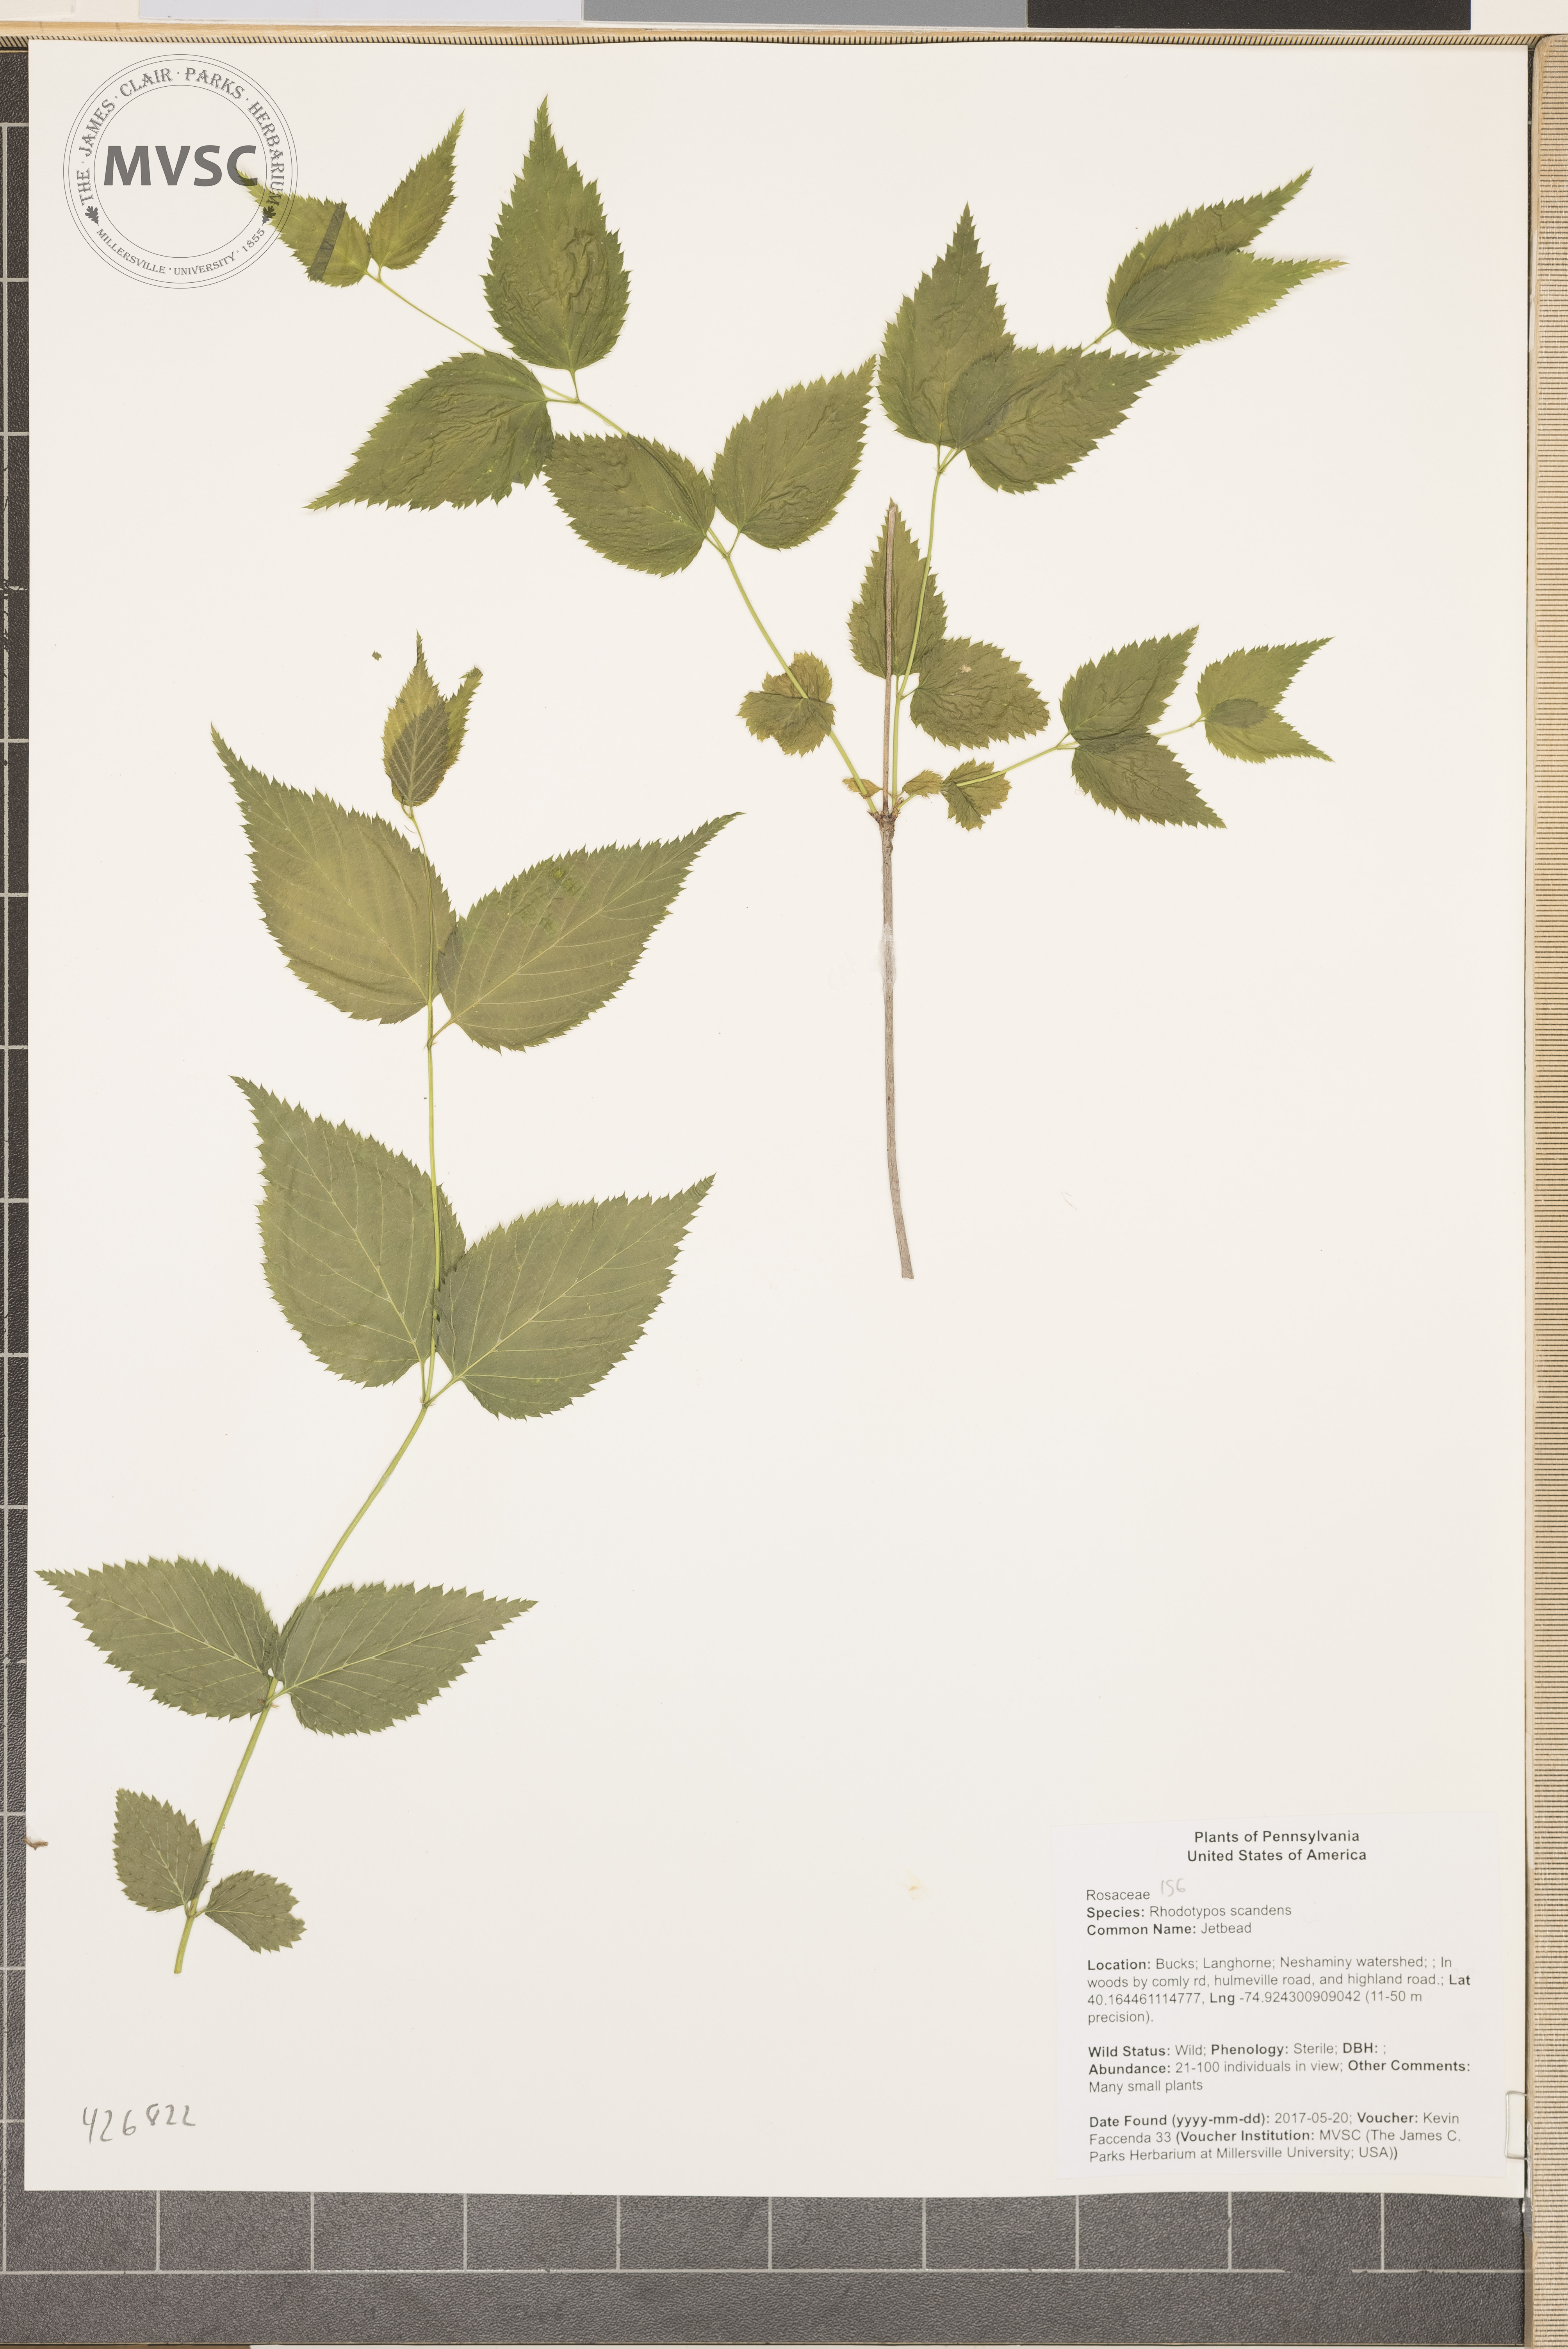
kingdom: Plantae
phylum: Tracheophyta
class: Magnoliopsida
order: Rosales
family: Rosaceae
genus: Rhodotypos
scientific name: Rhodotypos scandens
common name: Jetbead
